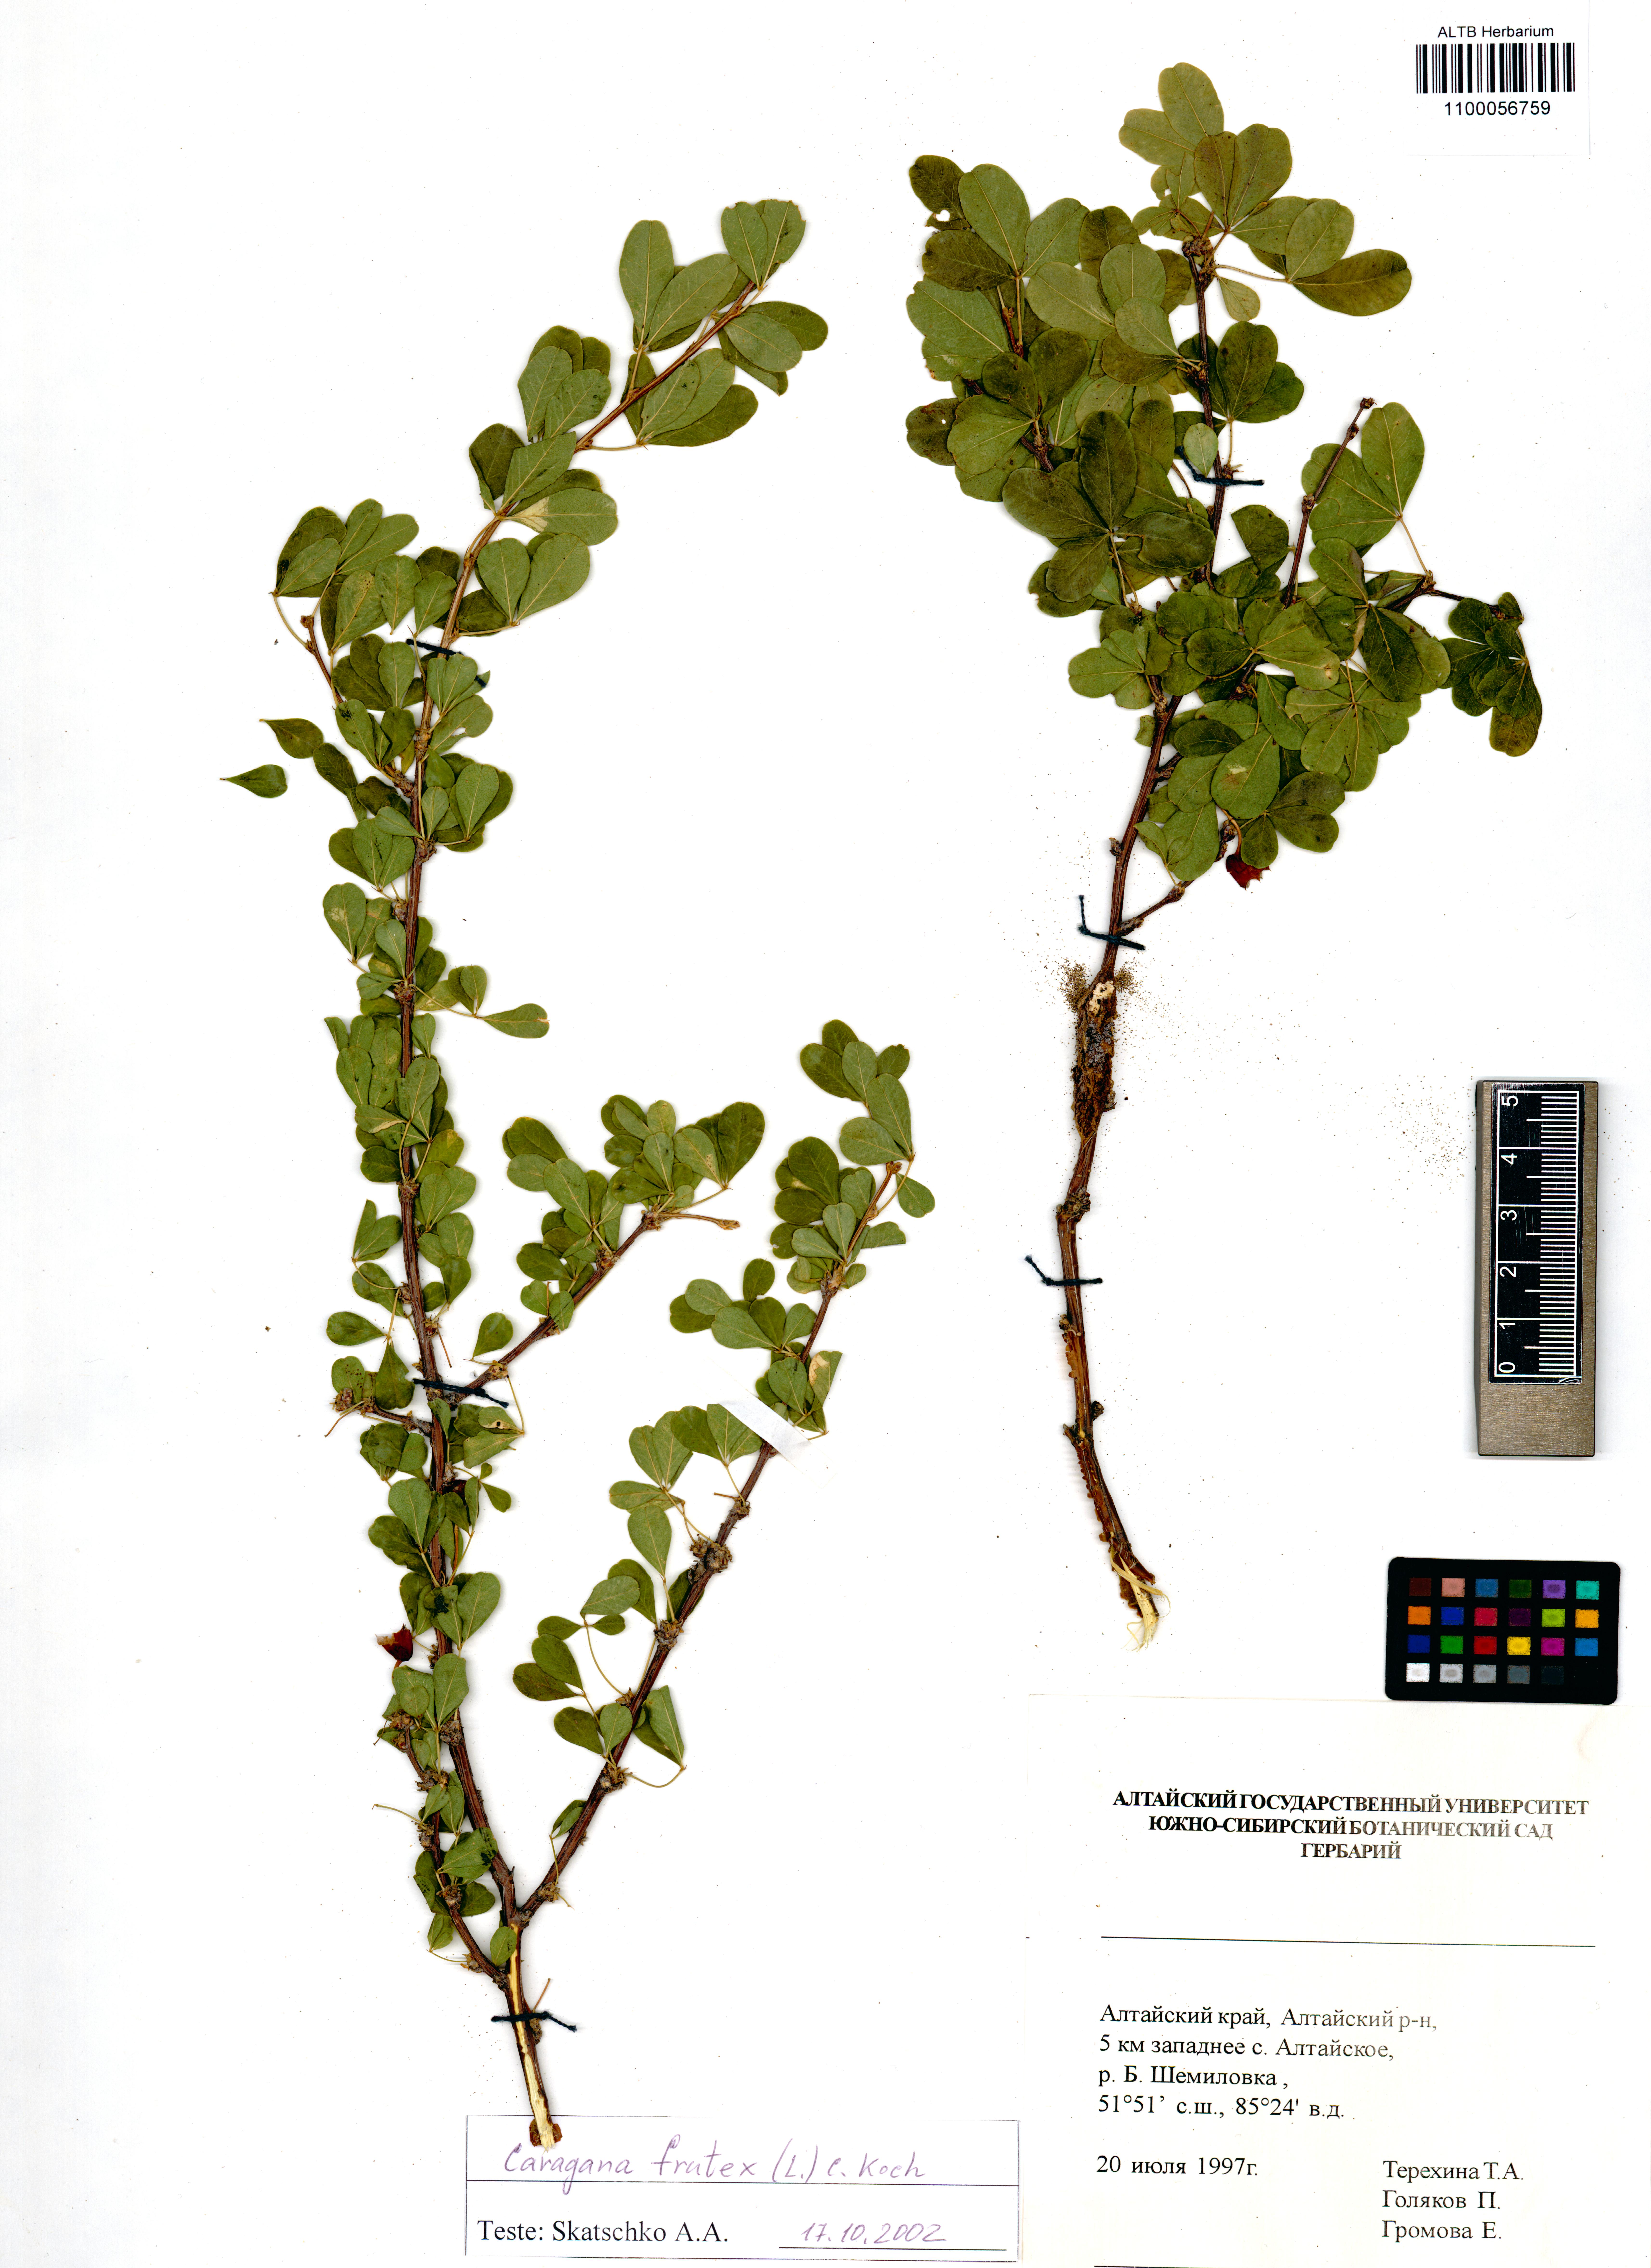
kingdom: Plantae
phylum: Tracheophyta
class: Magnoliopsida
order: Fabales
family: Fabaceae
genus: Caragana
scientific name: Caragana frutex
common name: Russian peashrub
